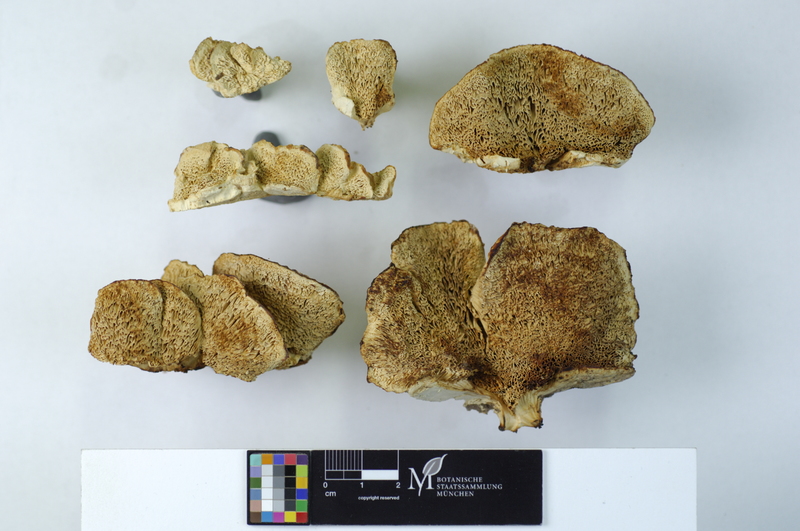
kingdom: Fungi
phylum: Basidiomycota
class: Agaricomycetes
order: Polyporales
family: Cerrenaceae
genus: Pseudospongipellis
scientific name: Pseudospongipellis delectans
